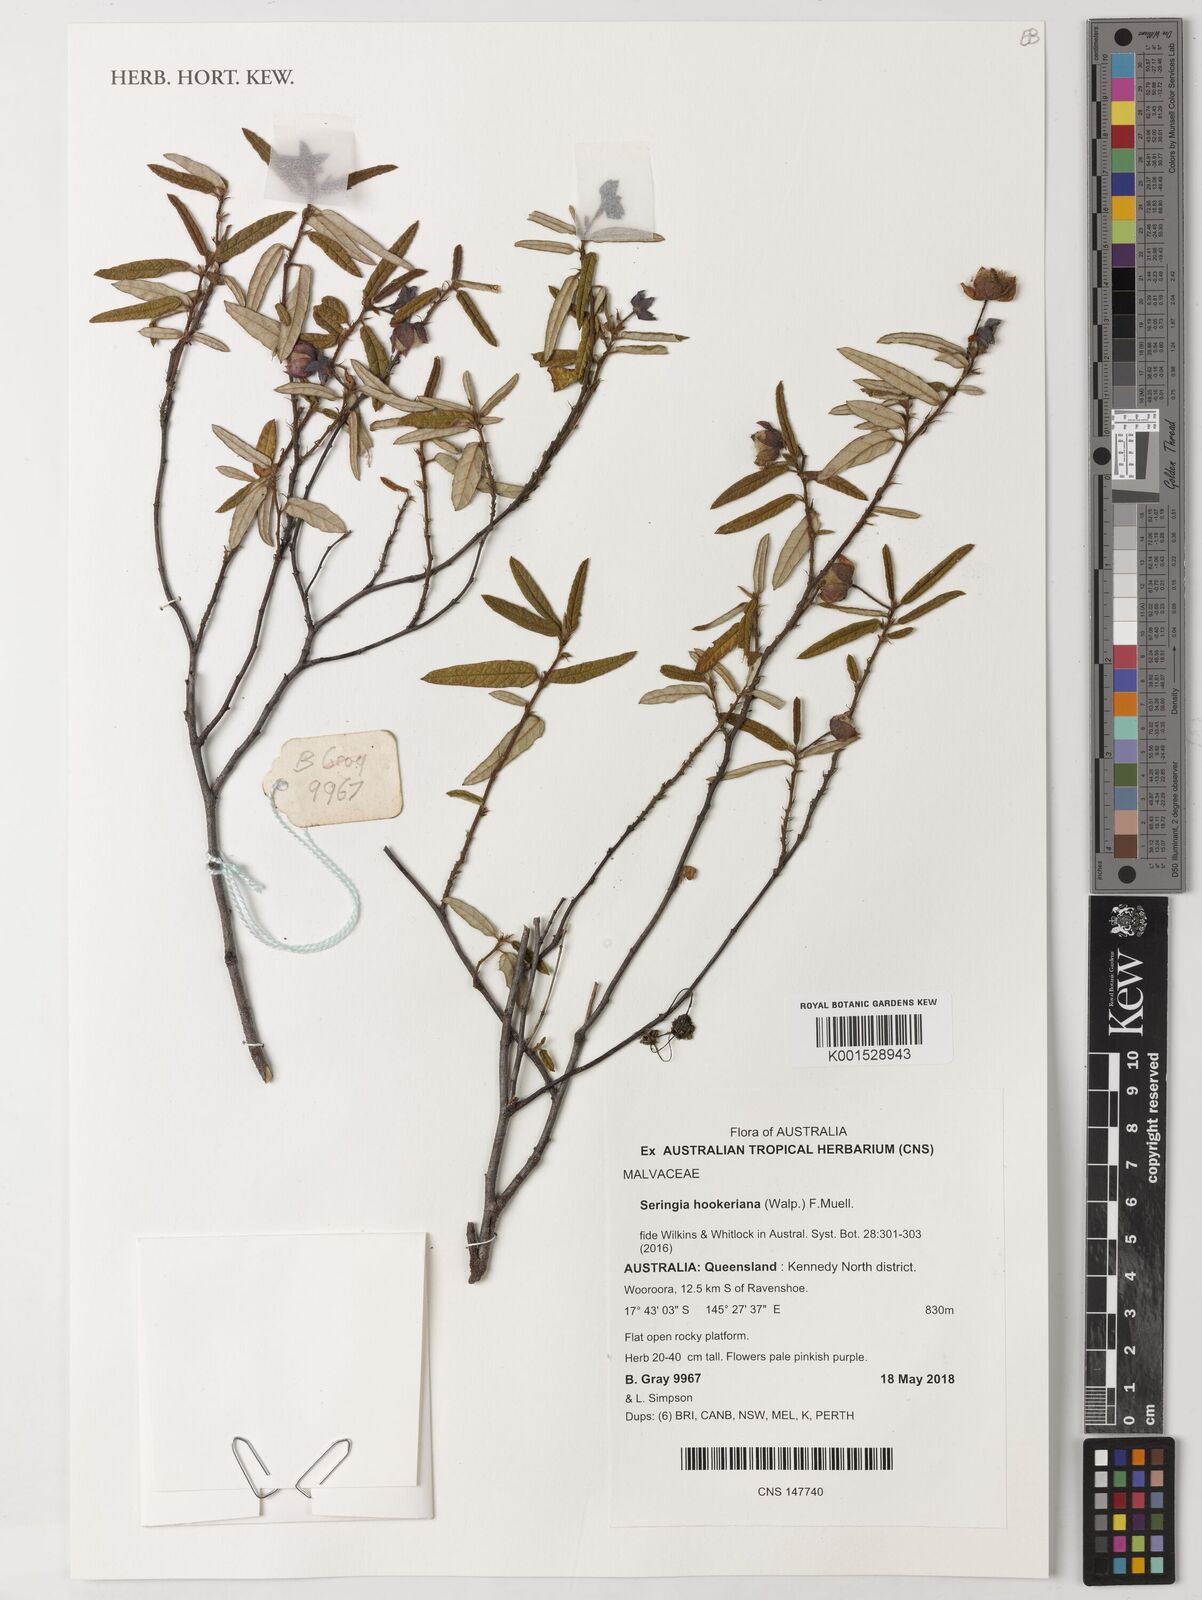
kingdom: Plantae
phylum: Tracheophyta
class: Magnoliopsida
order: Malvales
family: Malvaceae
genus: Seringia
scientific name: Seringia hookeriana
